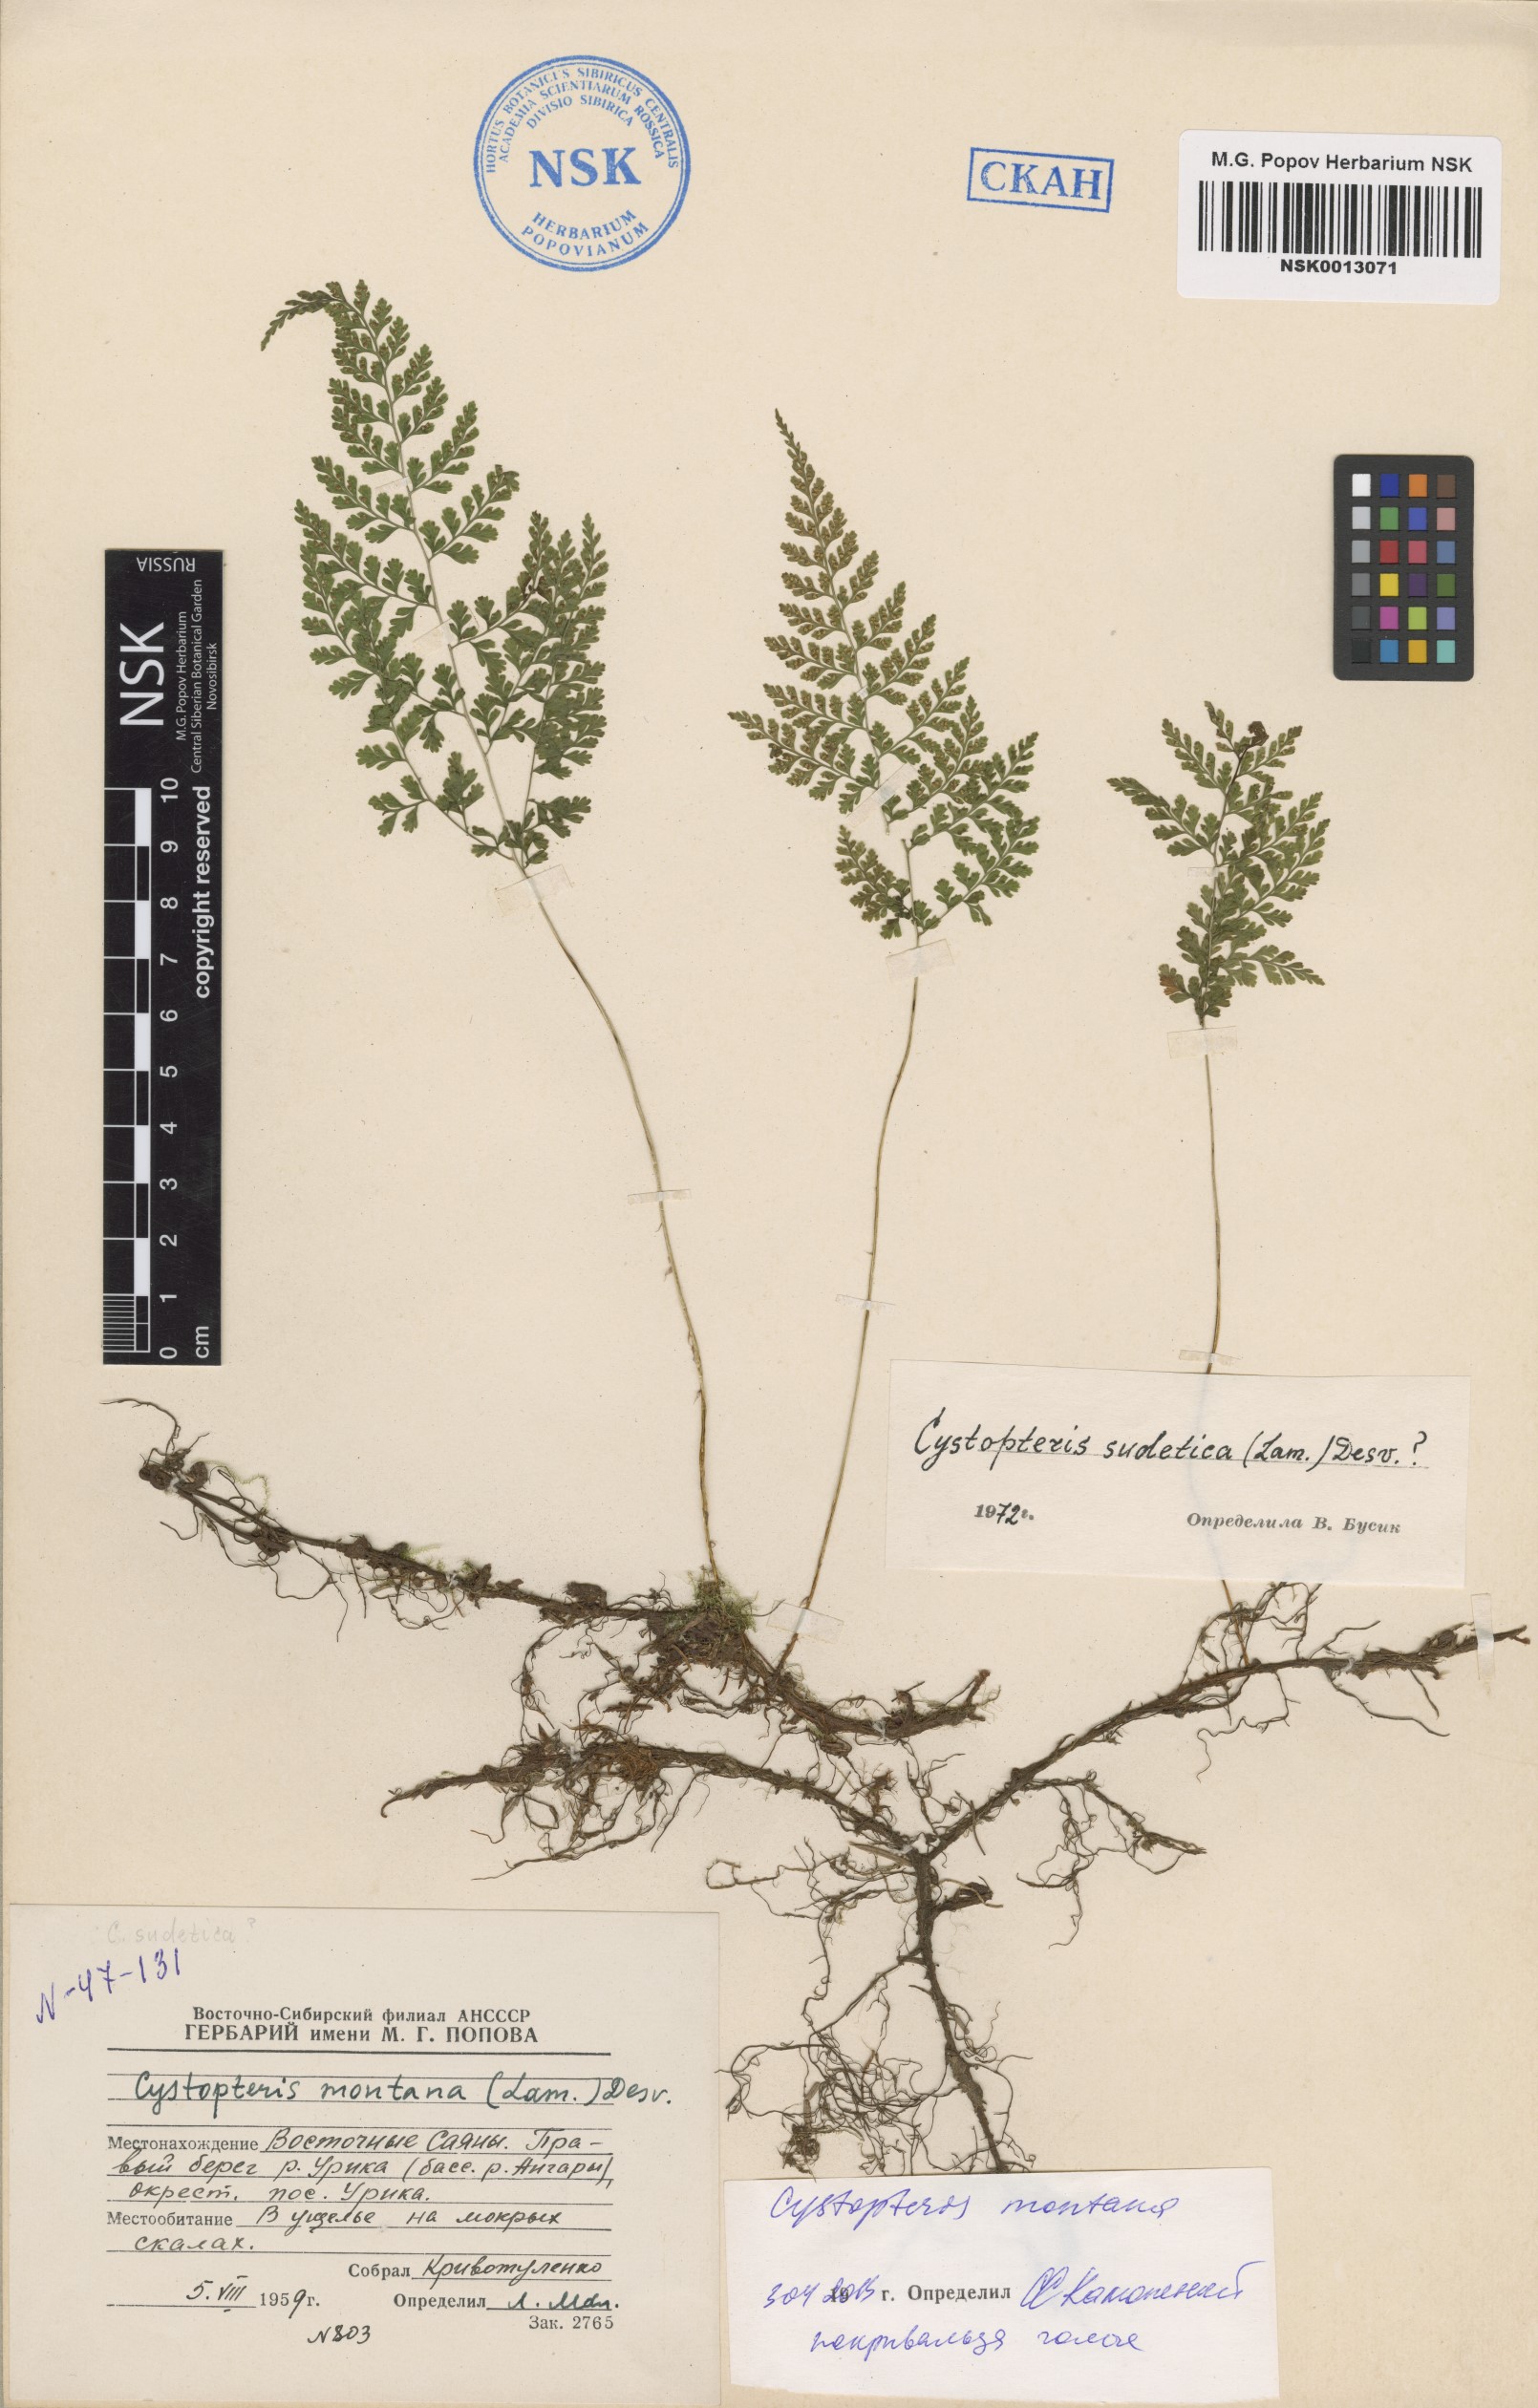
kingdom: Plantae
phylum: Tracheophyta
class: Polypodiopsida
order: Polypodiales
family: Cystopteridaceae
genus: Cystopteris
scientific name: Cystopteris montana
